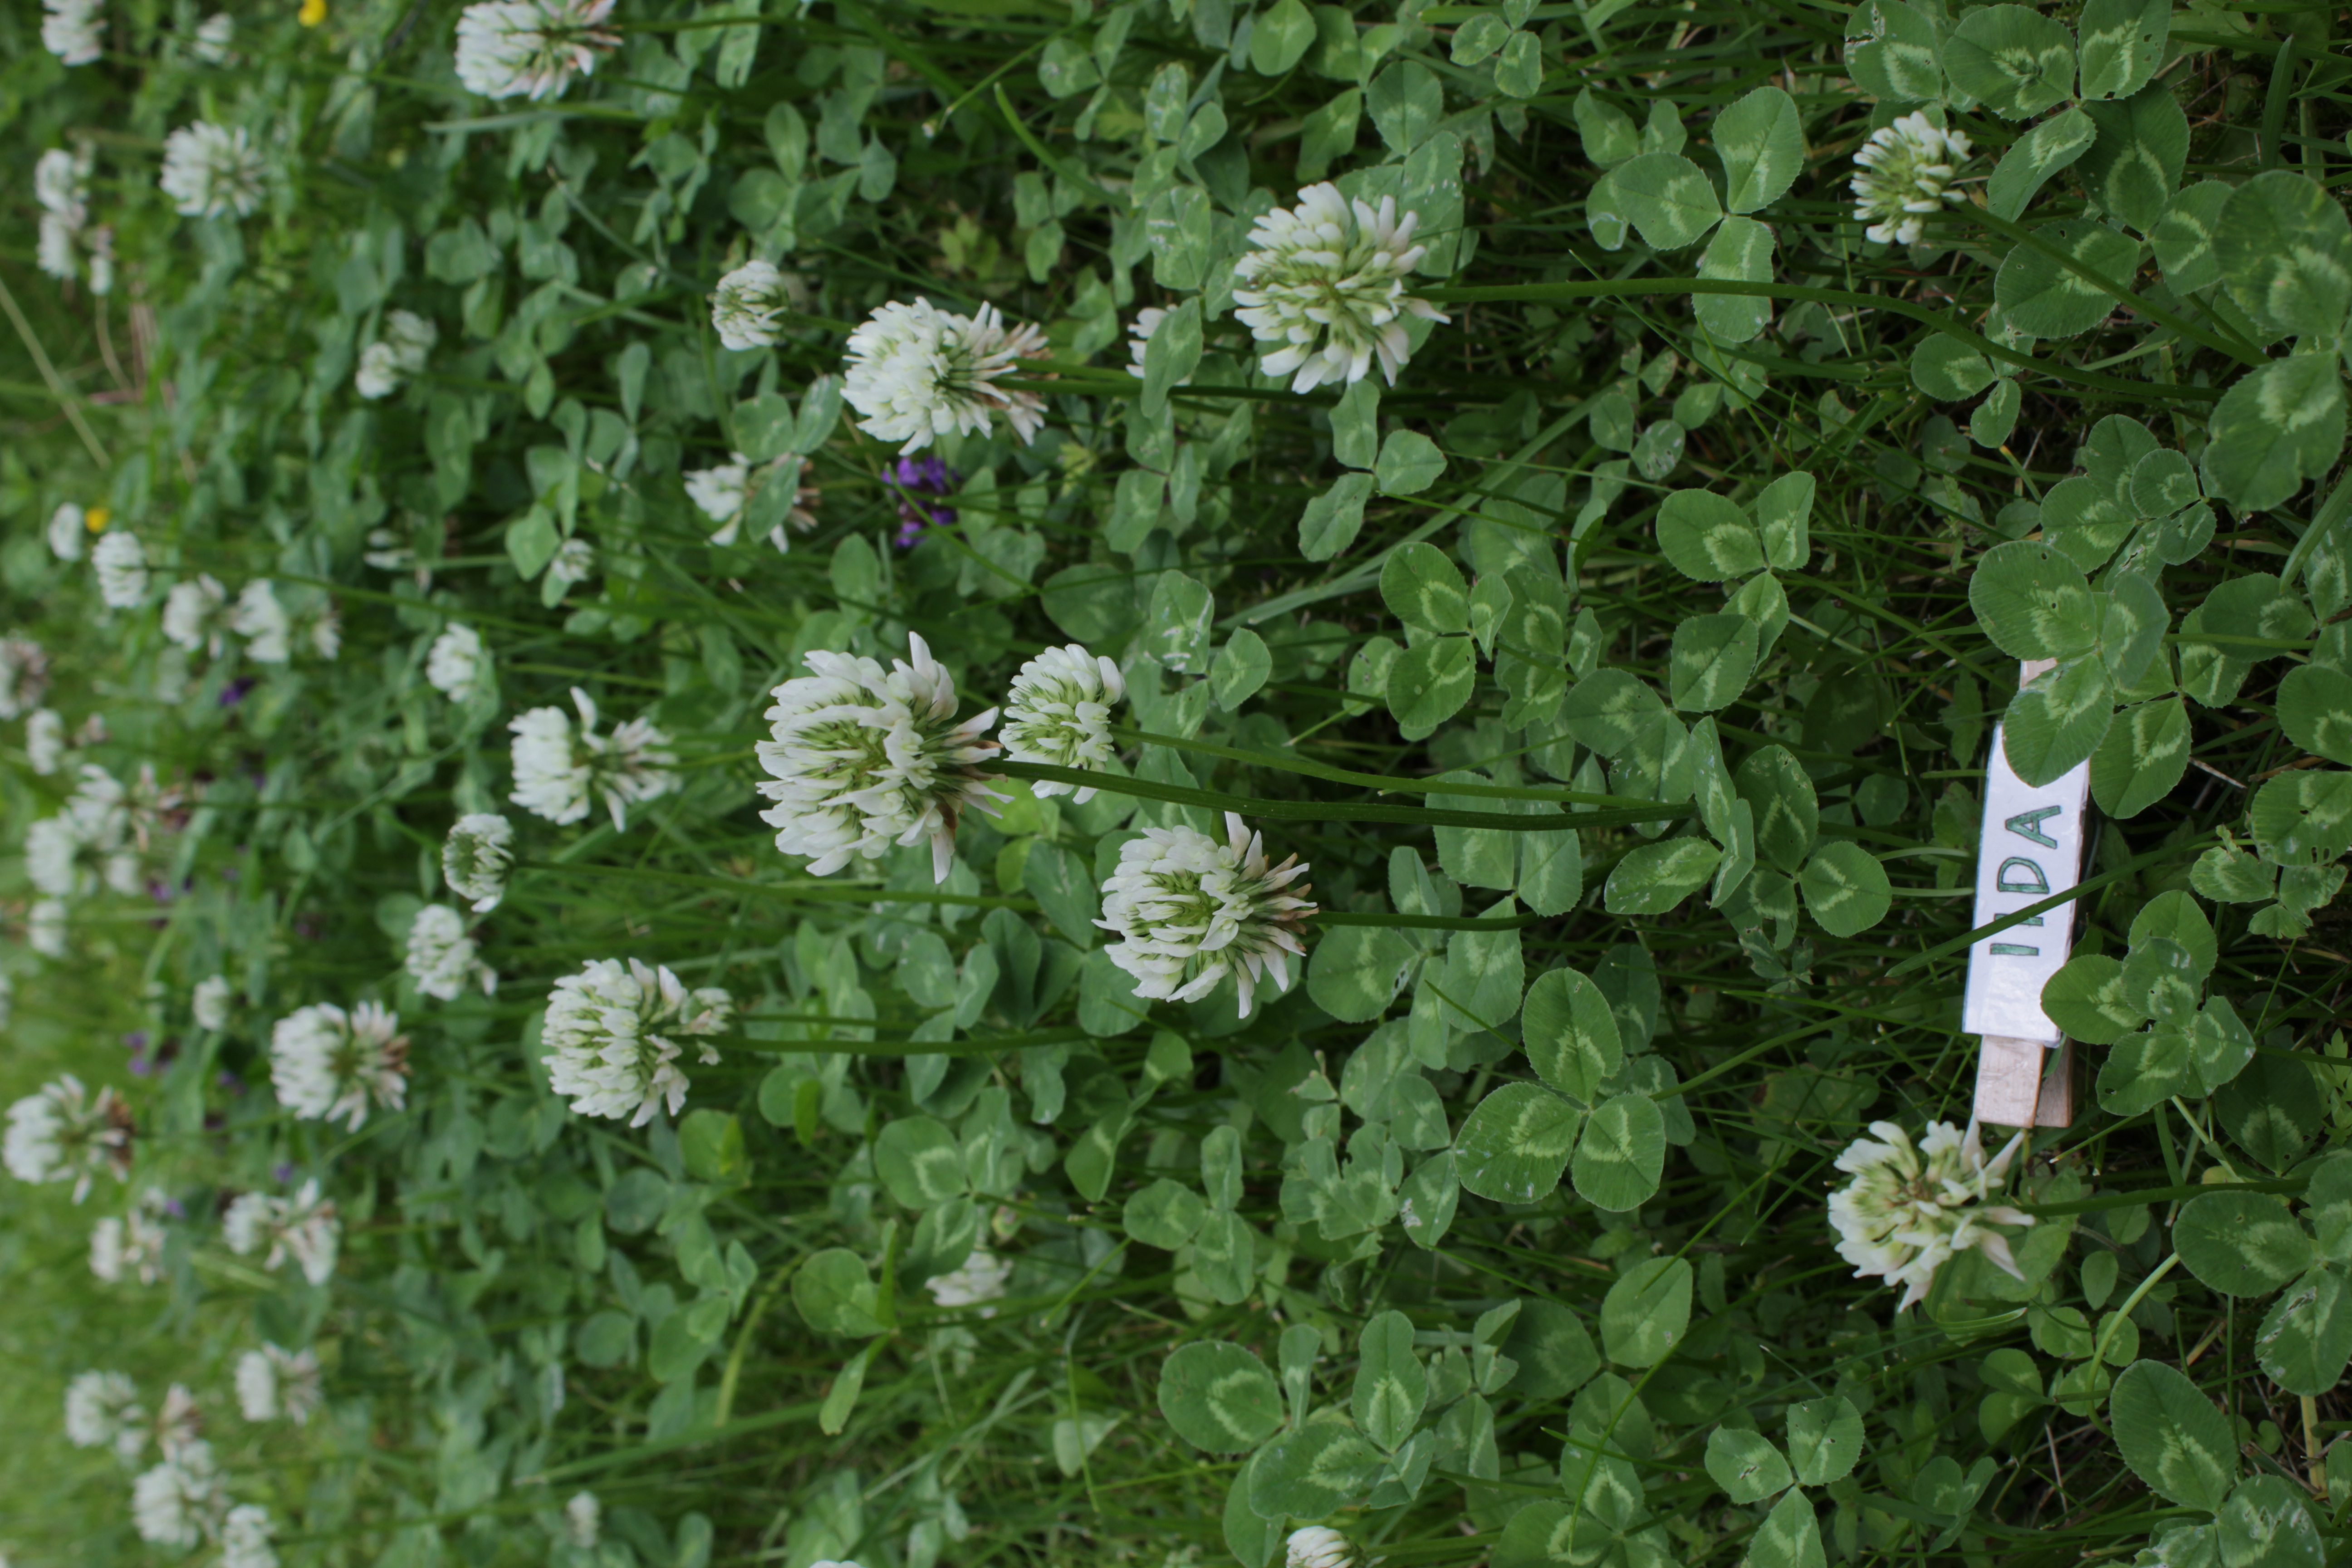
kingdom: Plantae
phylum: Tracheophyta
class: Magnoliopsida
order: Fabales
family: Fabaceae
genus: Trifolium
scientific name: Trifolium repens
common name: White clover
